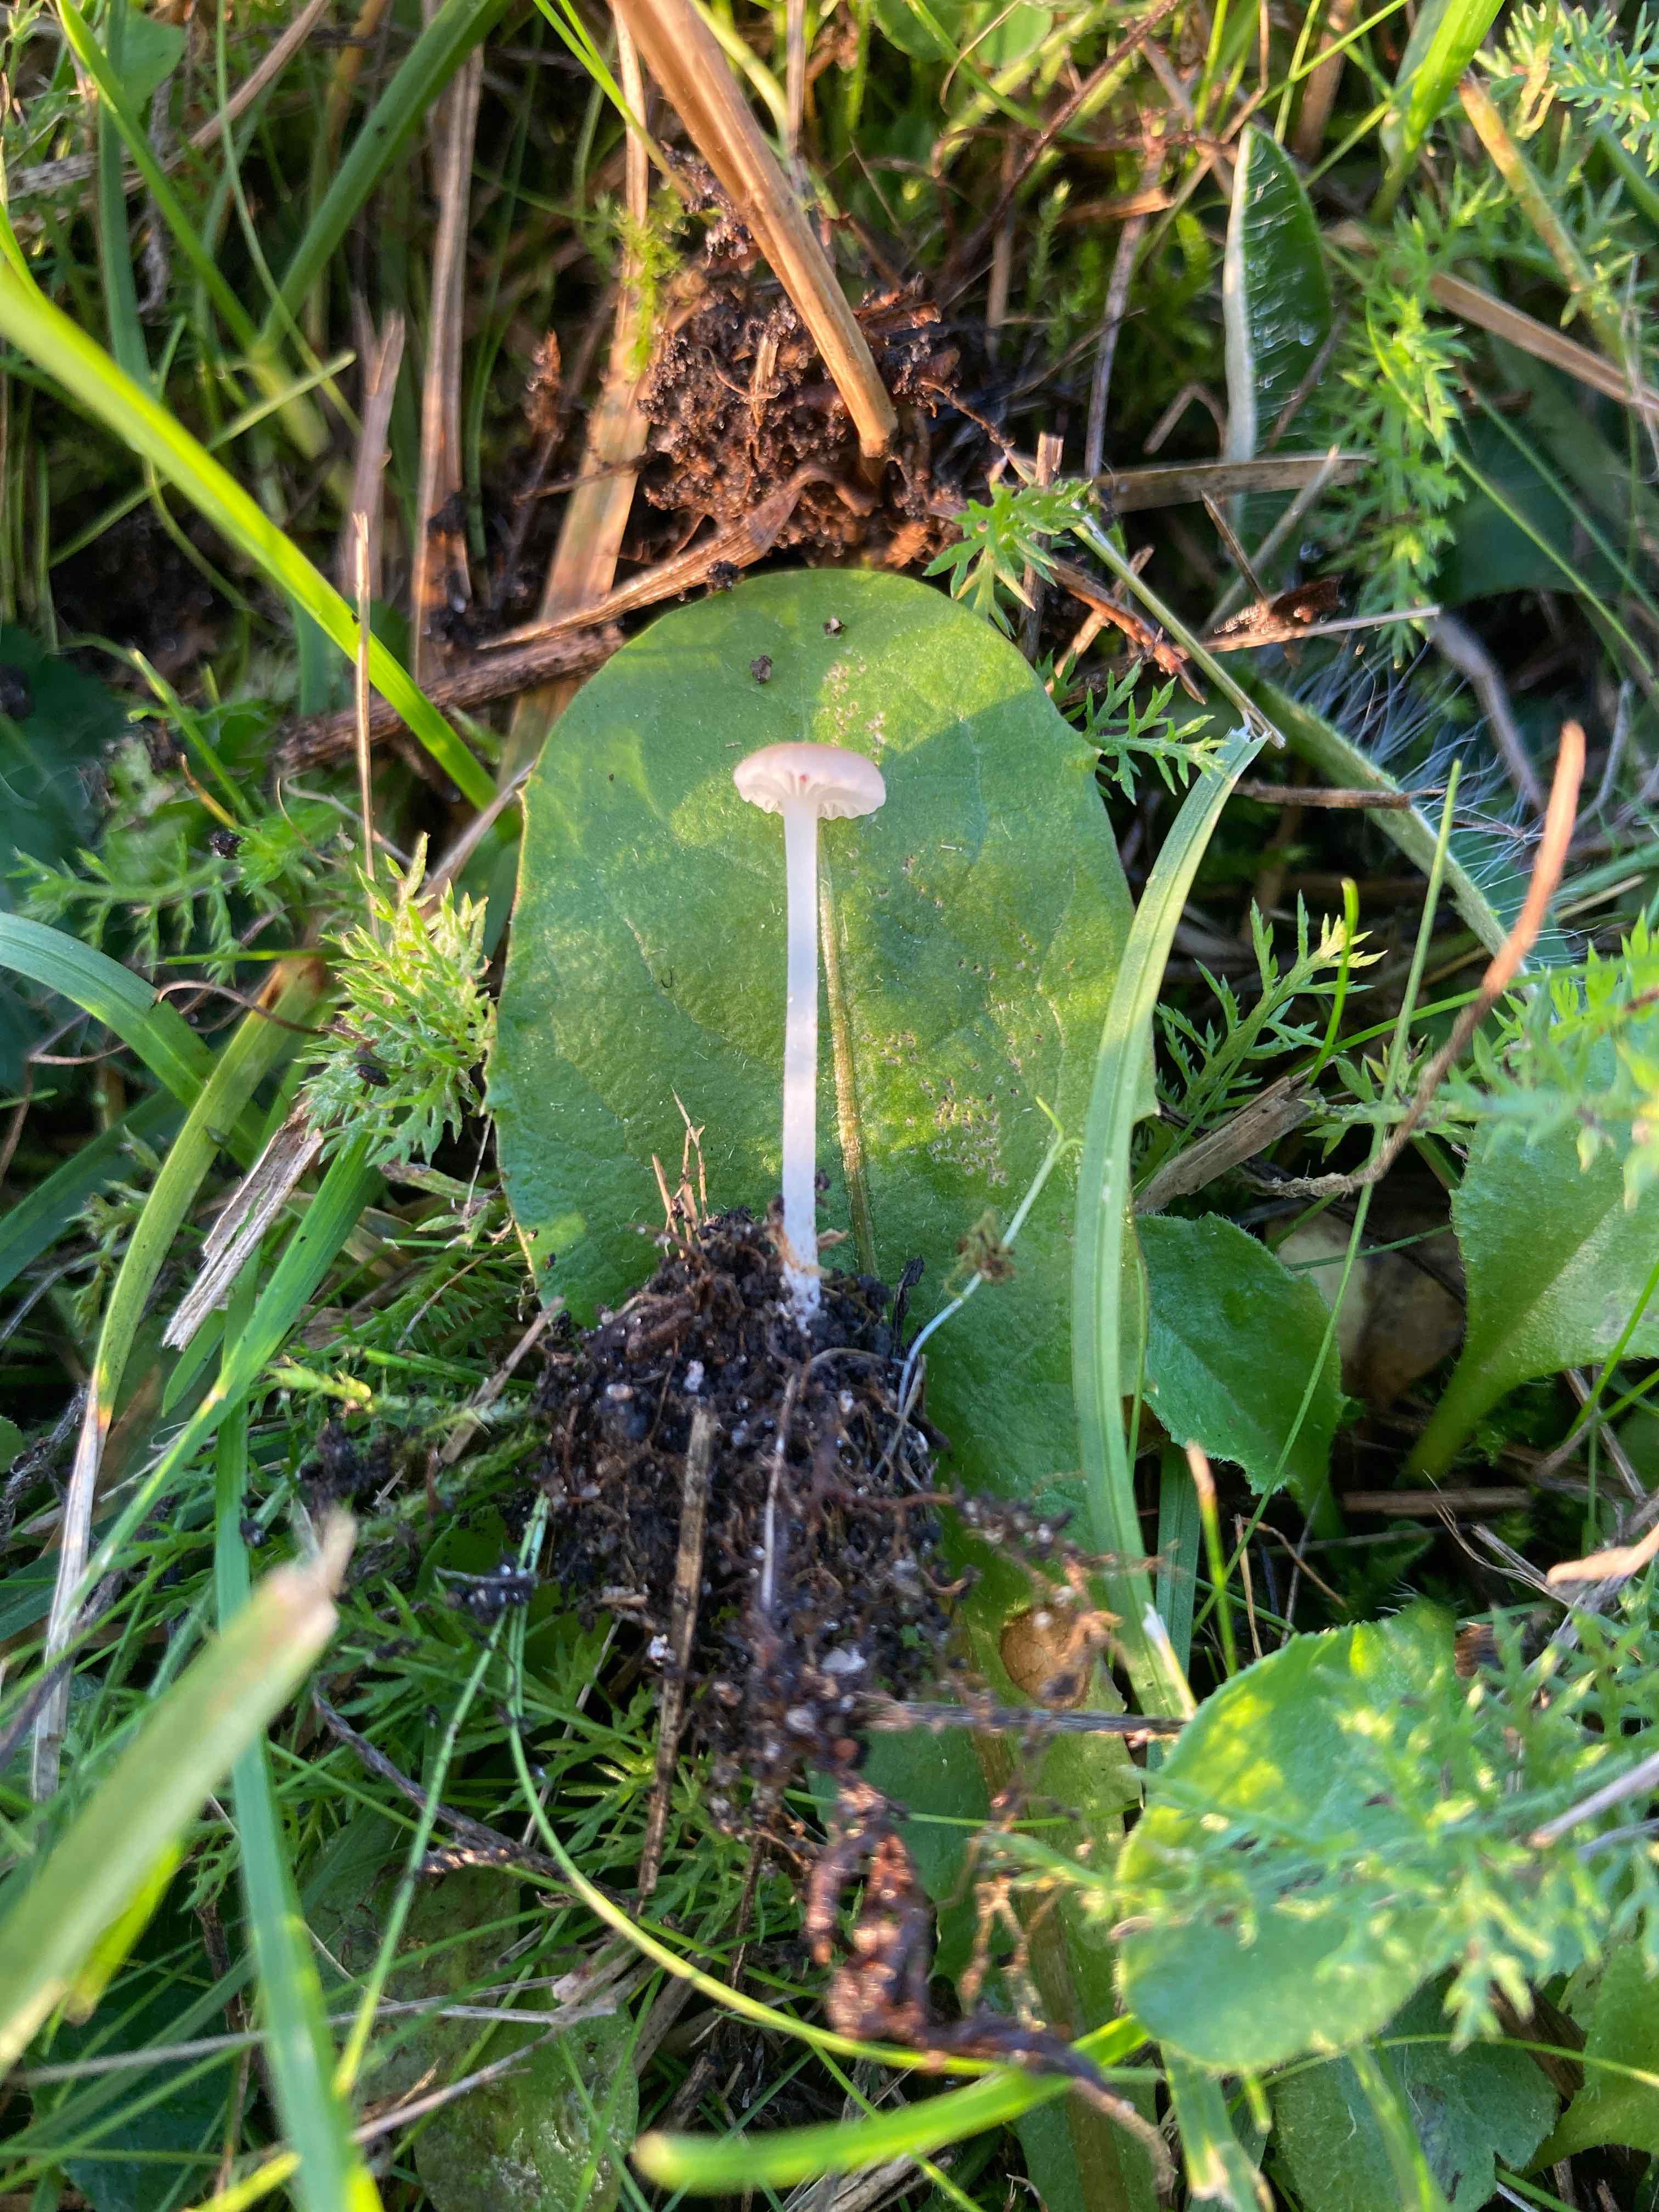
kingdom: Fungi
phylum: Basidiomycota
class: Agaricomycetes
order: Agaricales
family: Mycenaceae
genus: Hemimycena
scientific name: Hemimycena mairei
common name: voks-huesvamp
